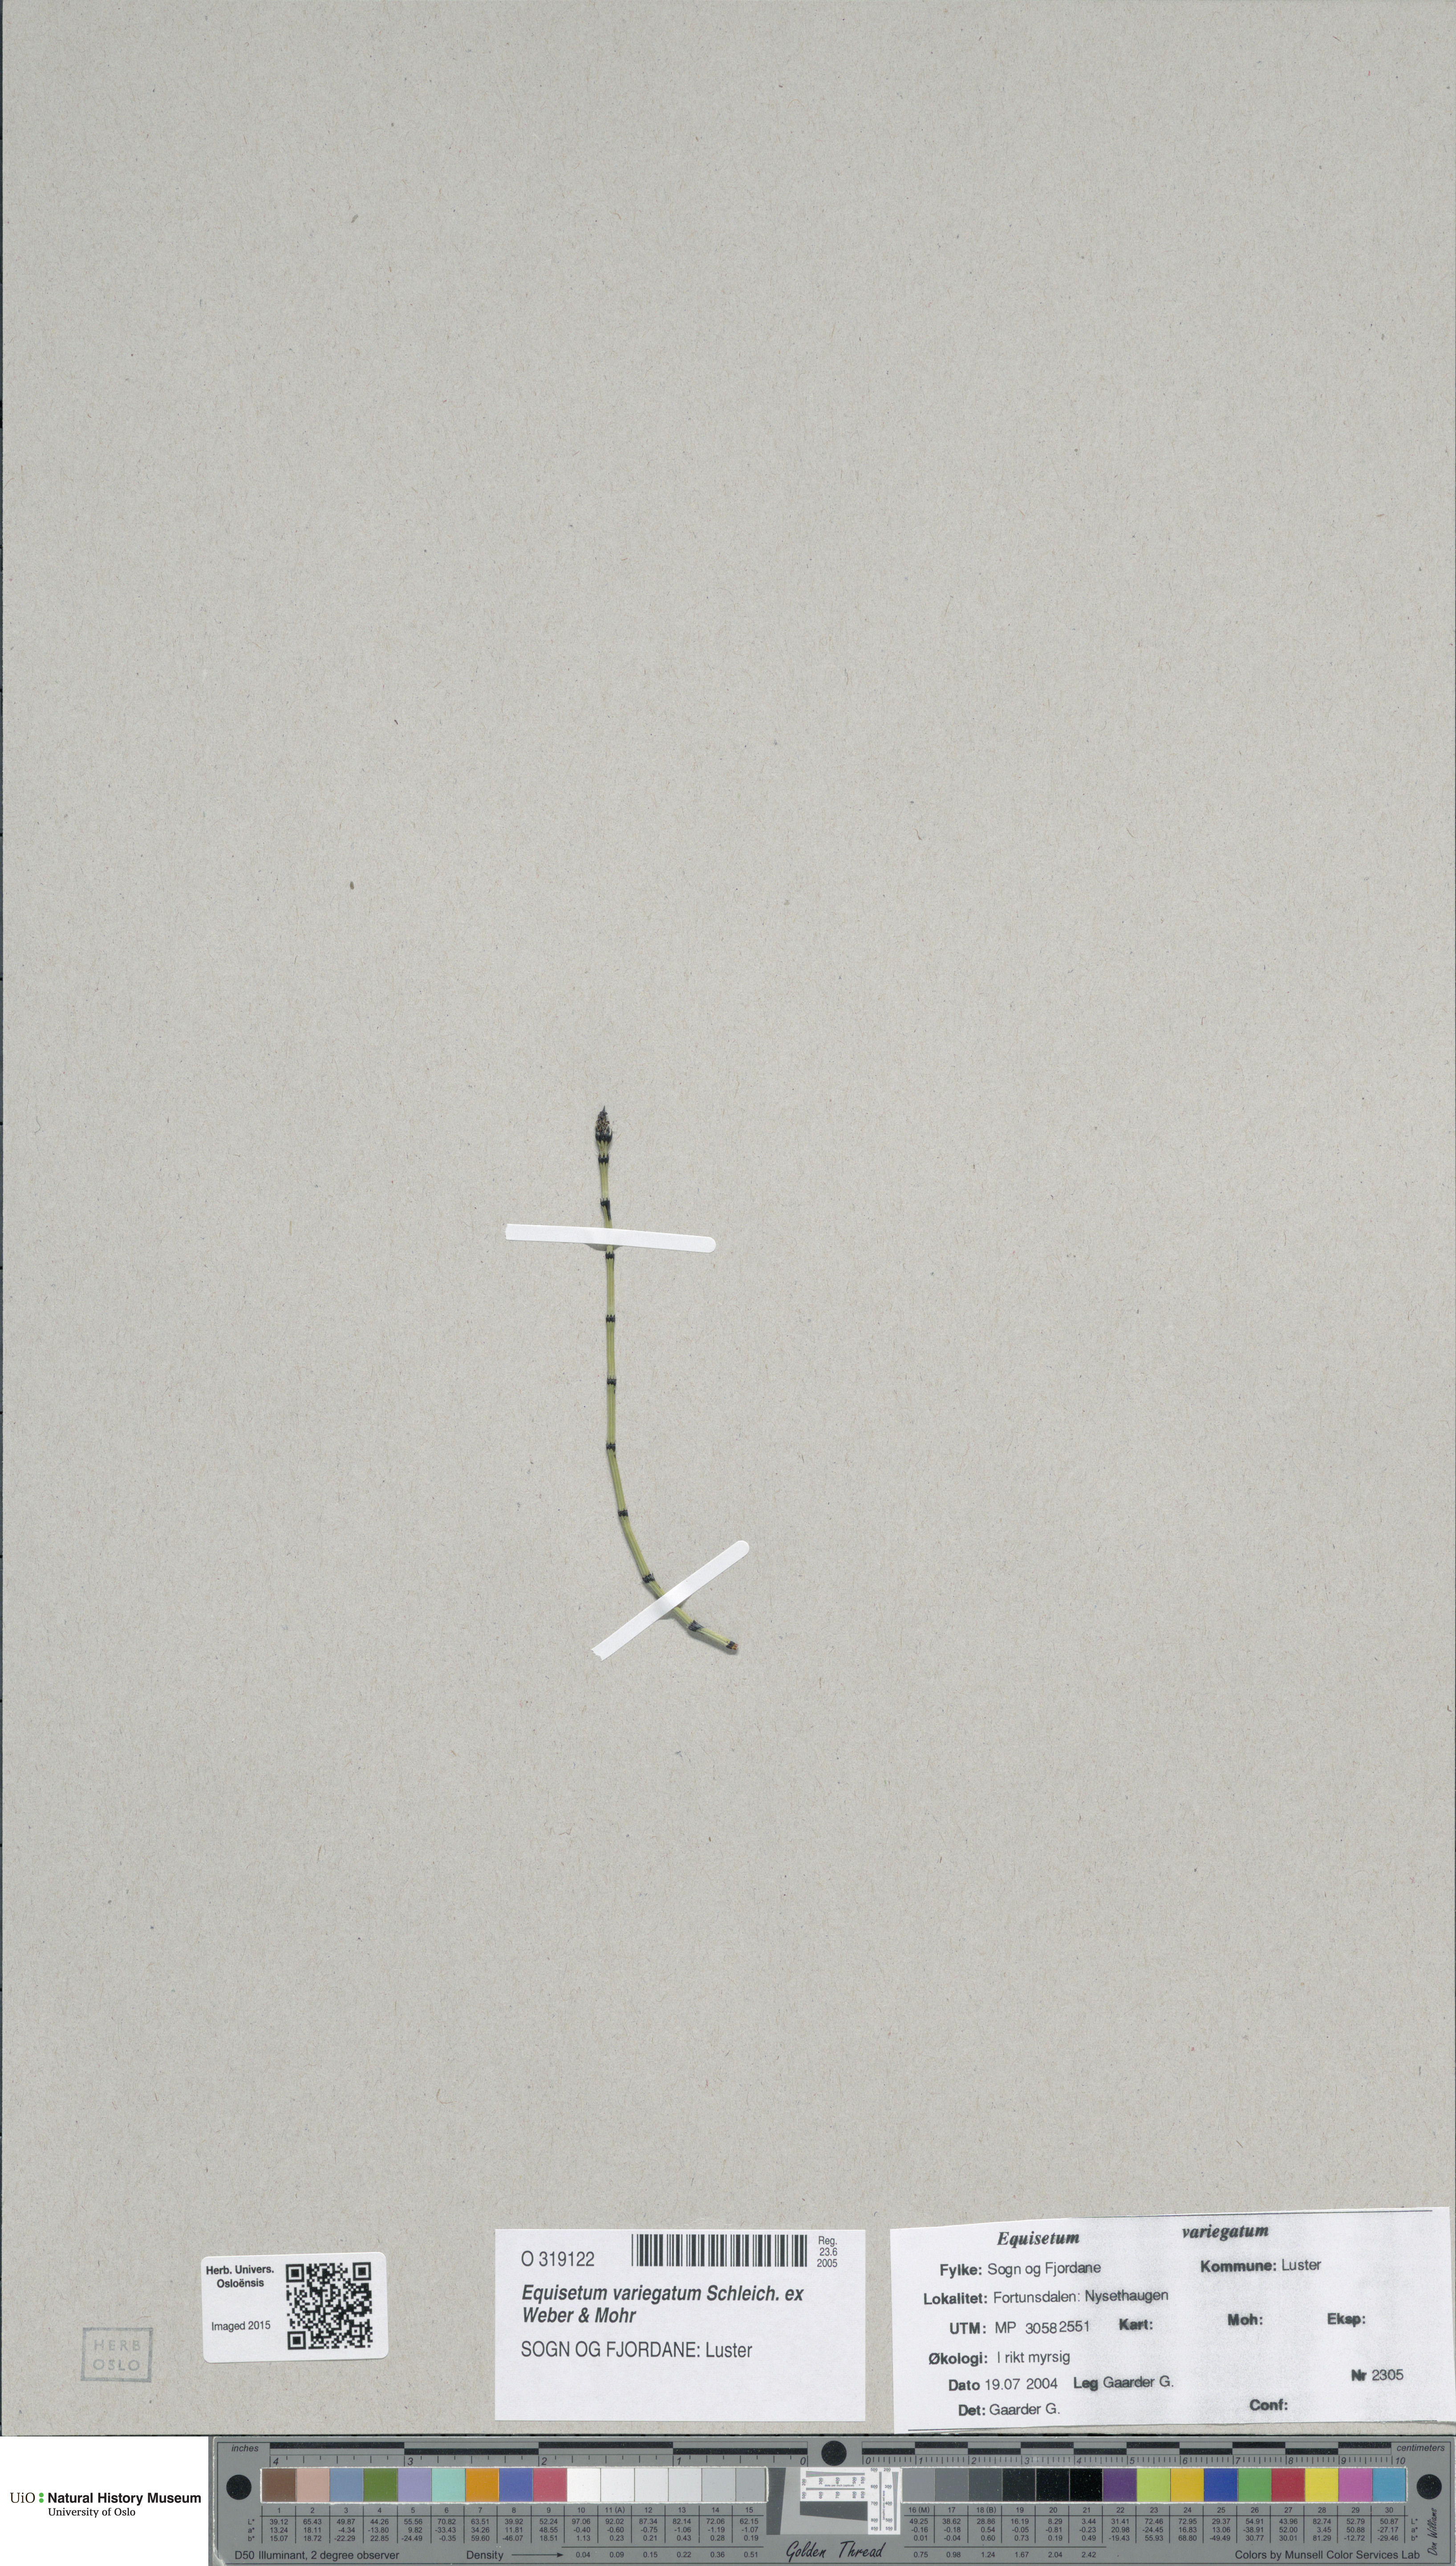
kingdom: Plantae
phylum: Tracheophyta
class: Polypodiopsida
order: Equisetales
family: Equisetaceae
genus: Equisetum
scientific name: Equisetum variegatum
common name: Variegated horsetail
